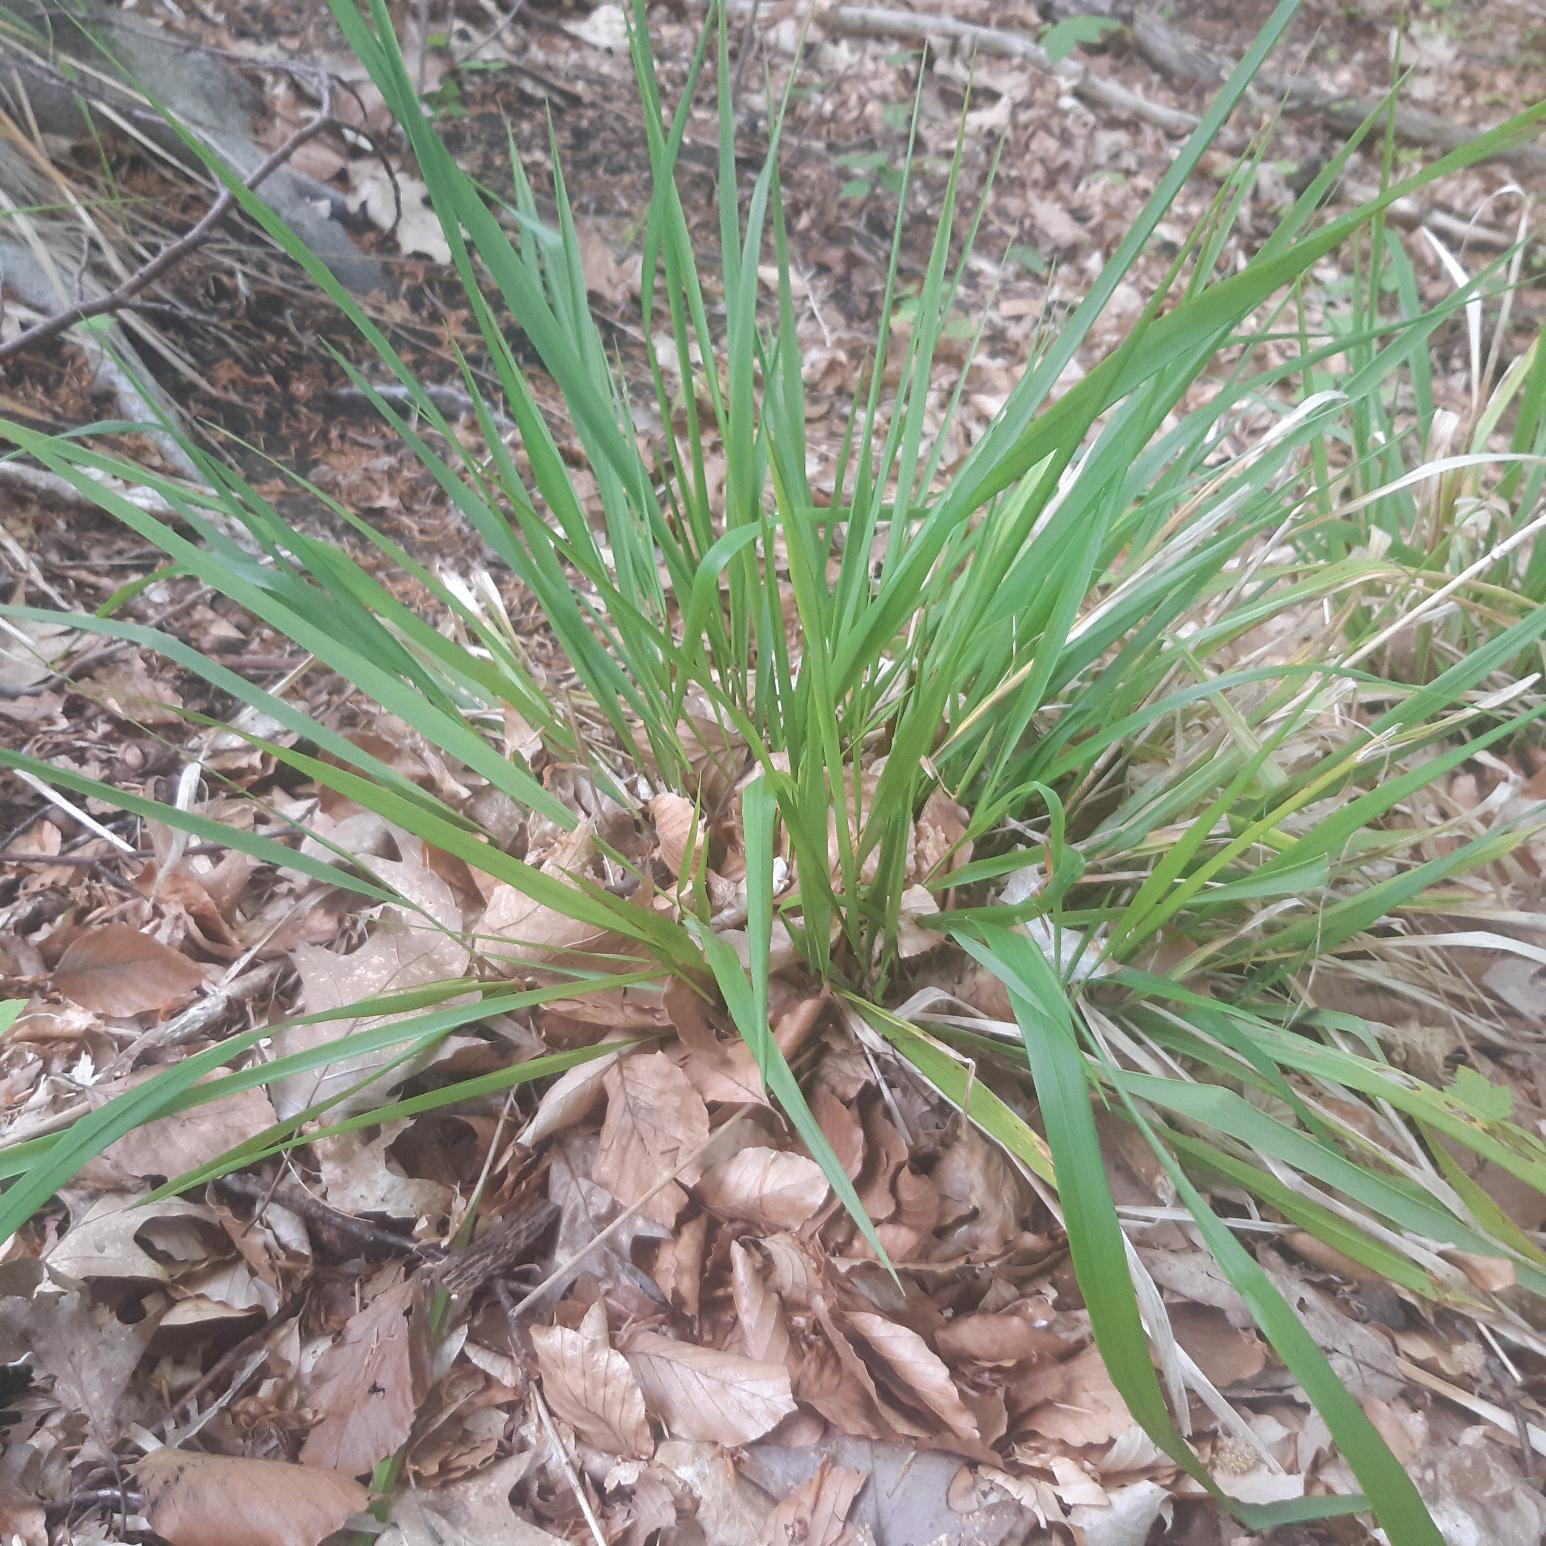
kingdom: Plantae
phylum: Tracheophyta
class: Liliopsida
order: Poales
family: Poaceae
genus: Festuca
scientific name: Festuca altissima
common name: Skov-svingel
